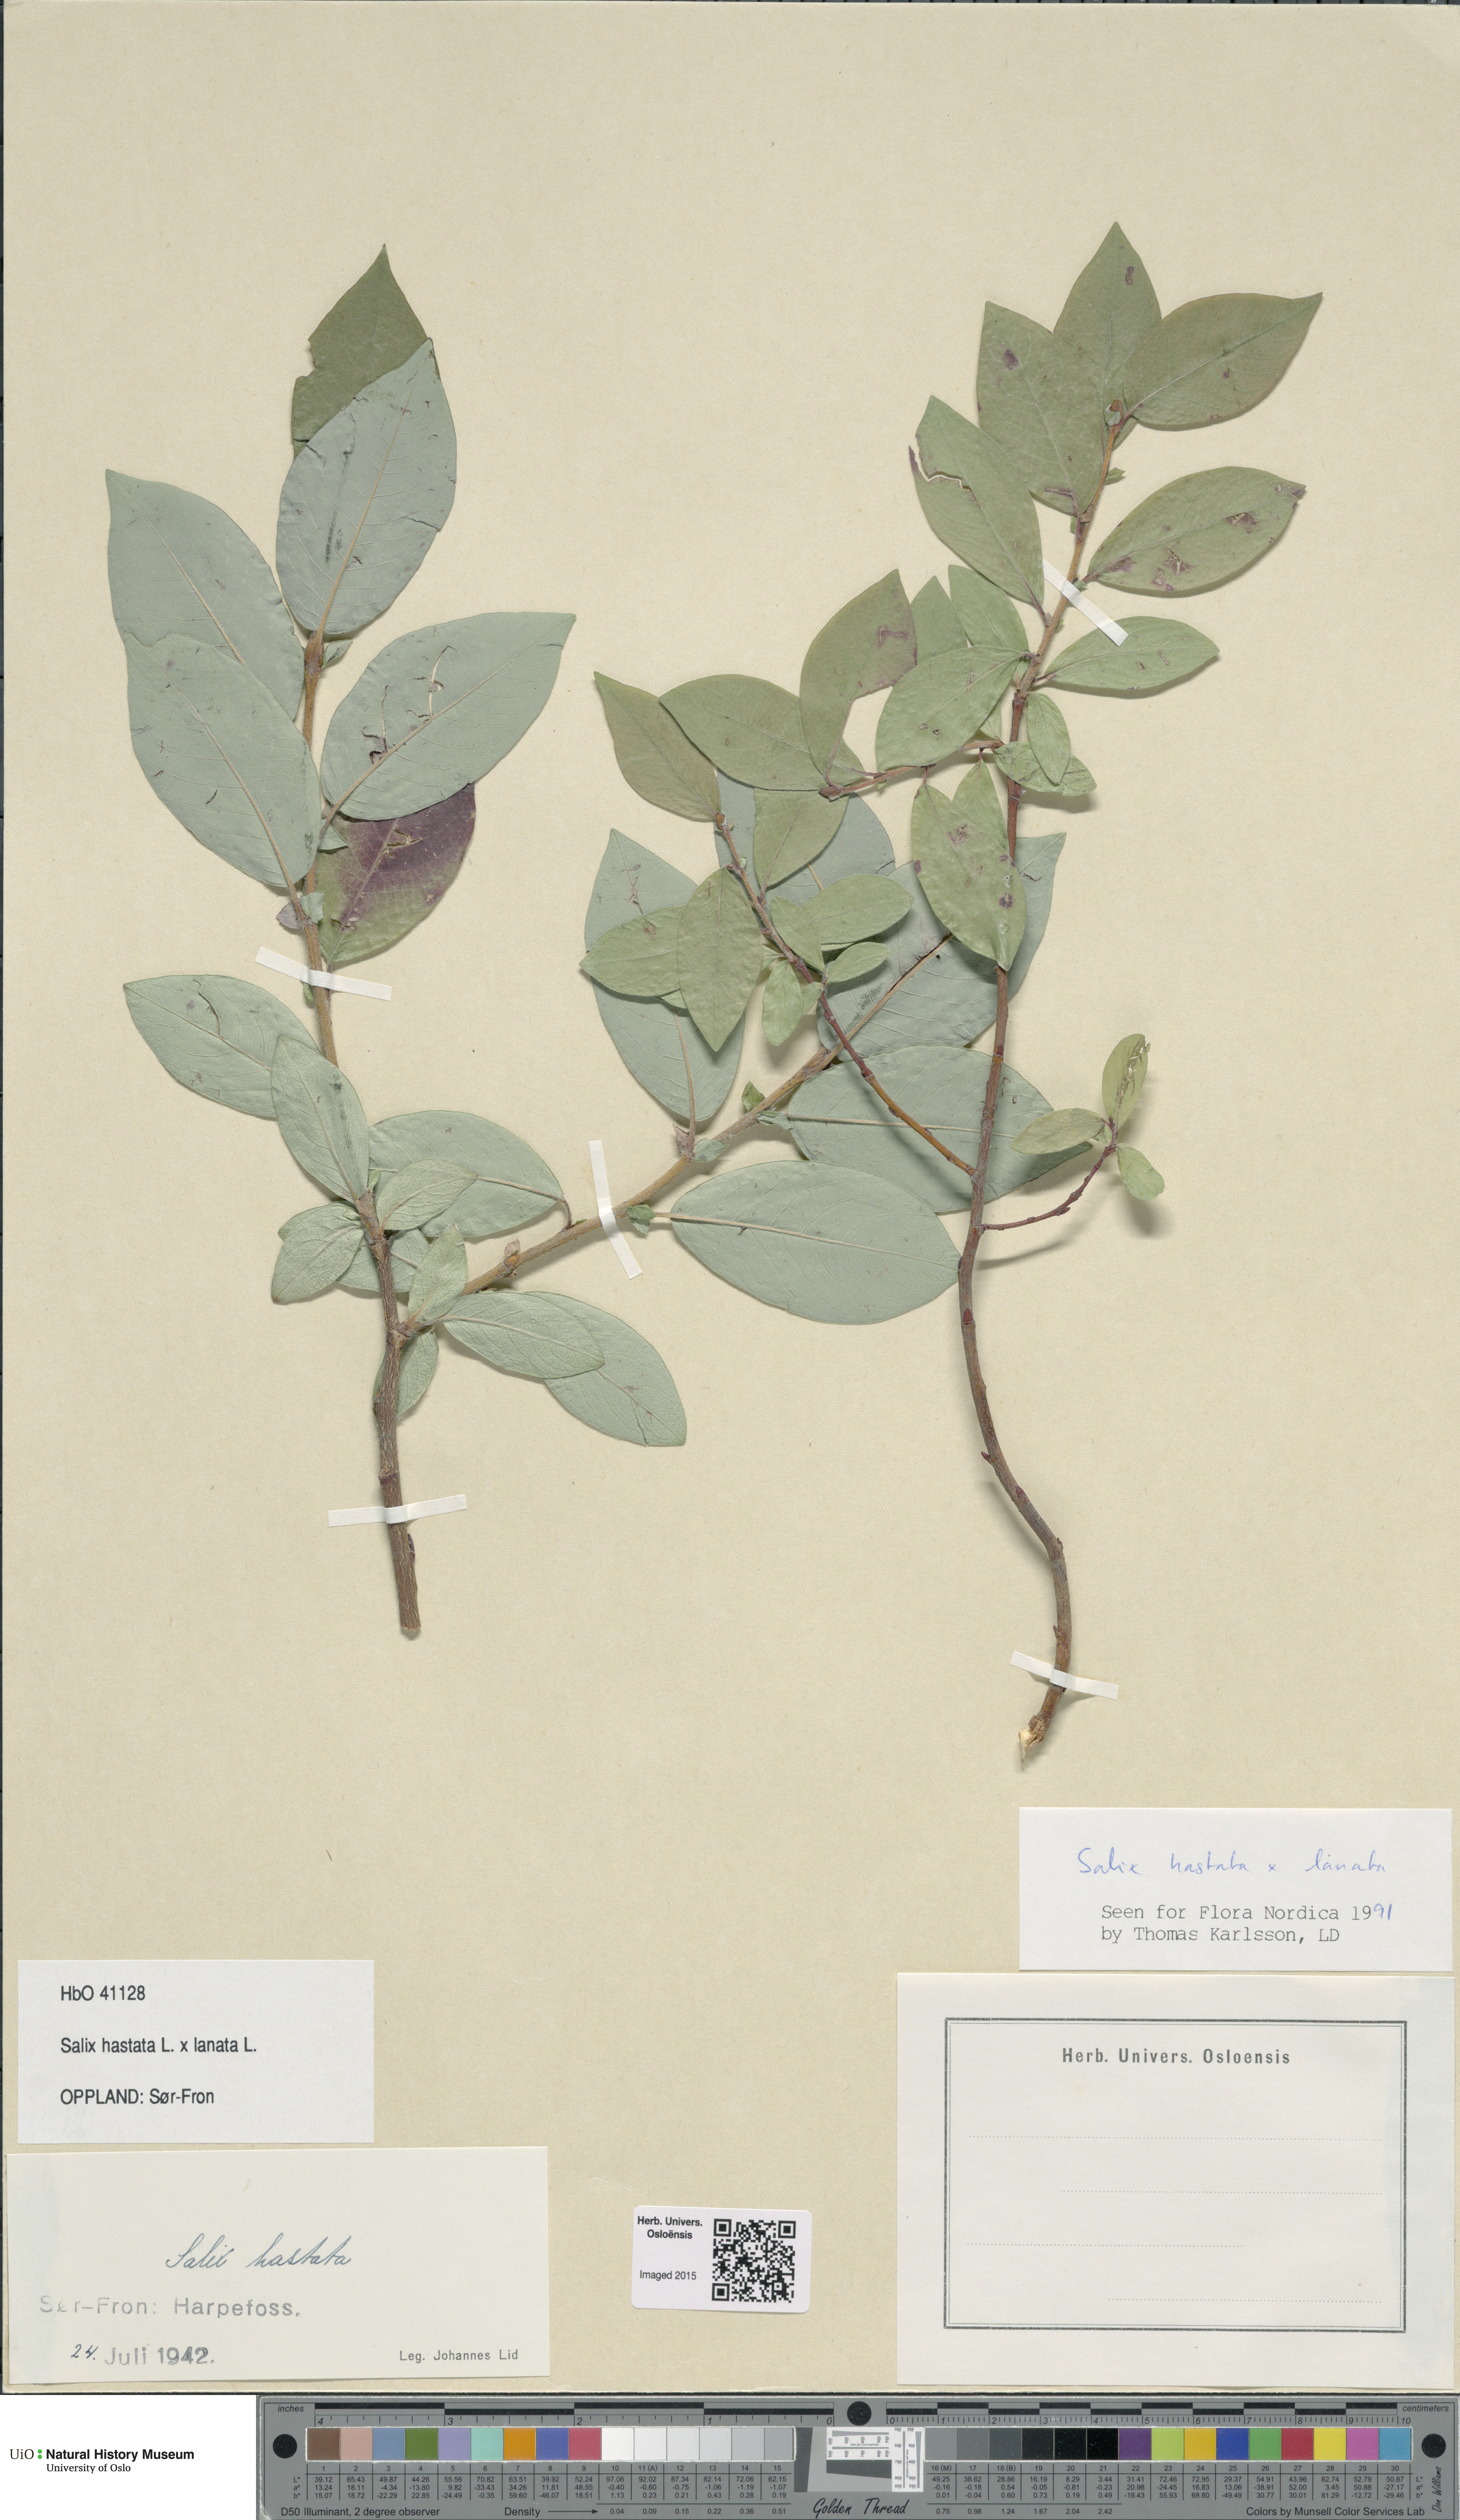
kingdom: Plantae
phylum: Tracheophyta
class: Magnoliopsida
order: Malpighiales
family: Salicaceae
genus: Salix
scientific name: Salix
